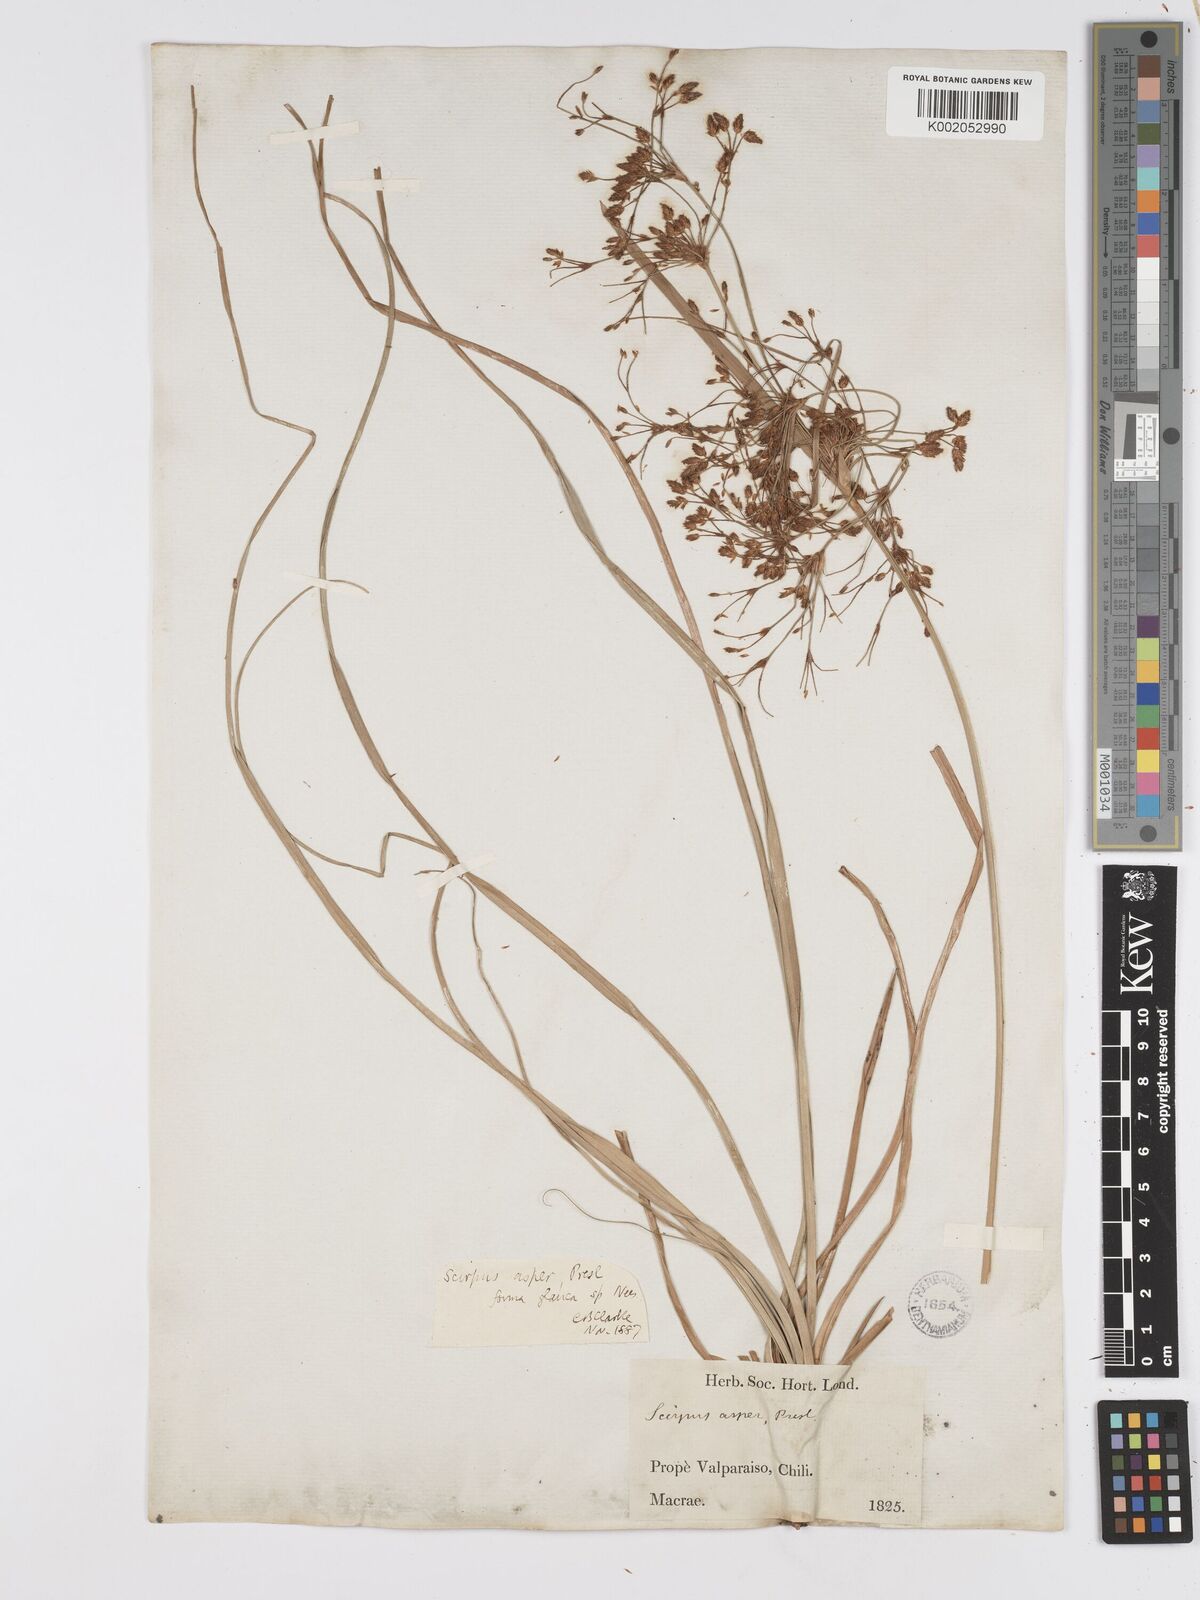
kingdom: Plantae
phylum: Tracheophyta
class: Liliopsida
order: Poales
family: Cyperaceae
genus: Rhodoscirpus
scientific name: Rhodoscirpus asper
